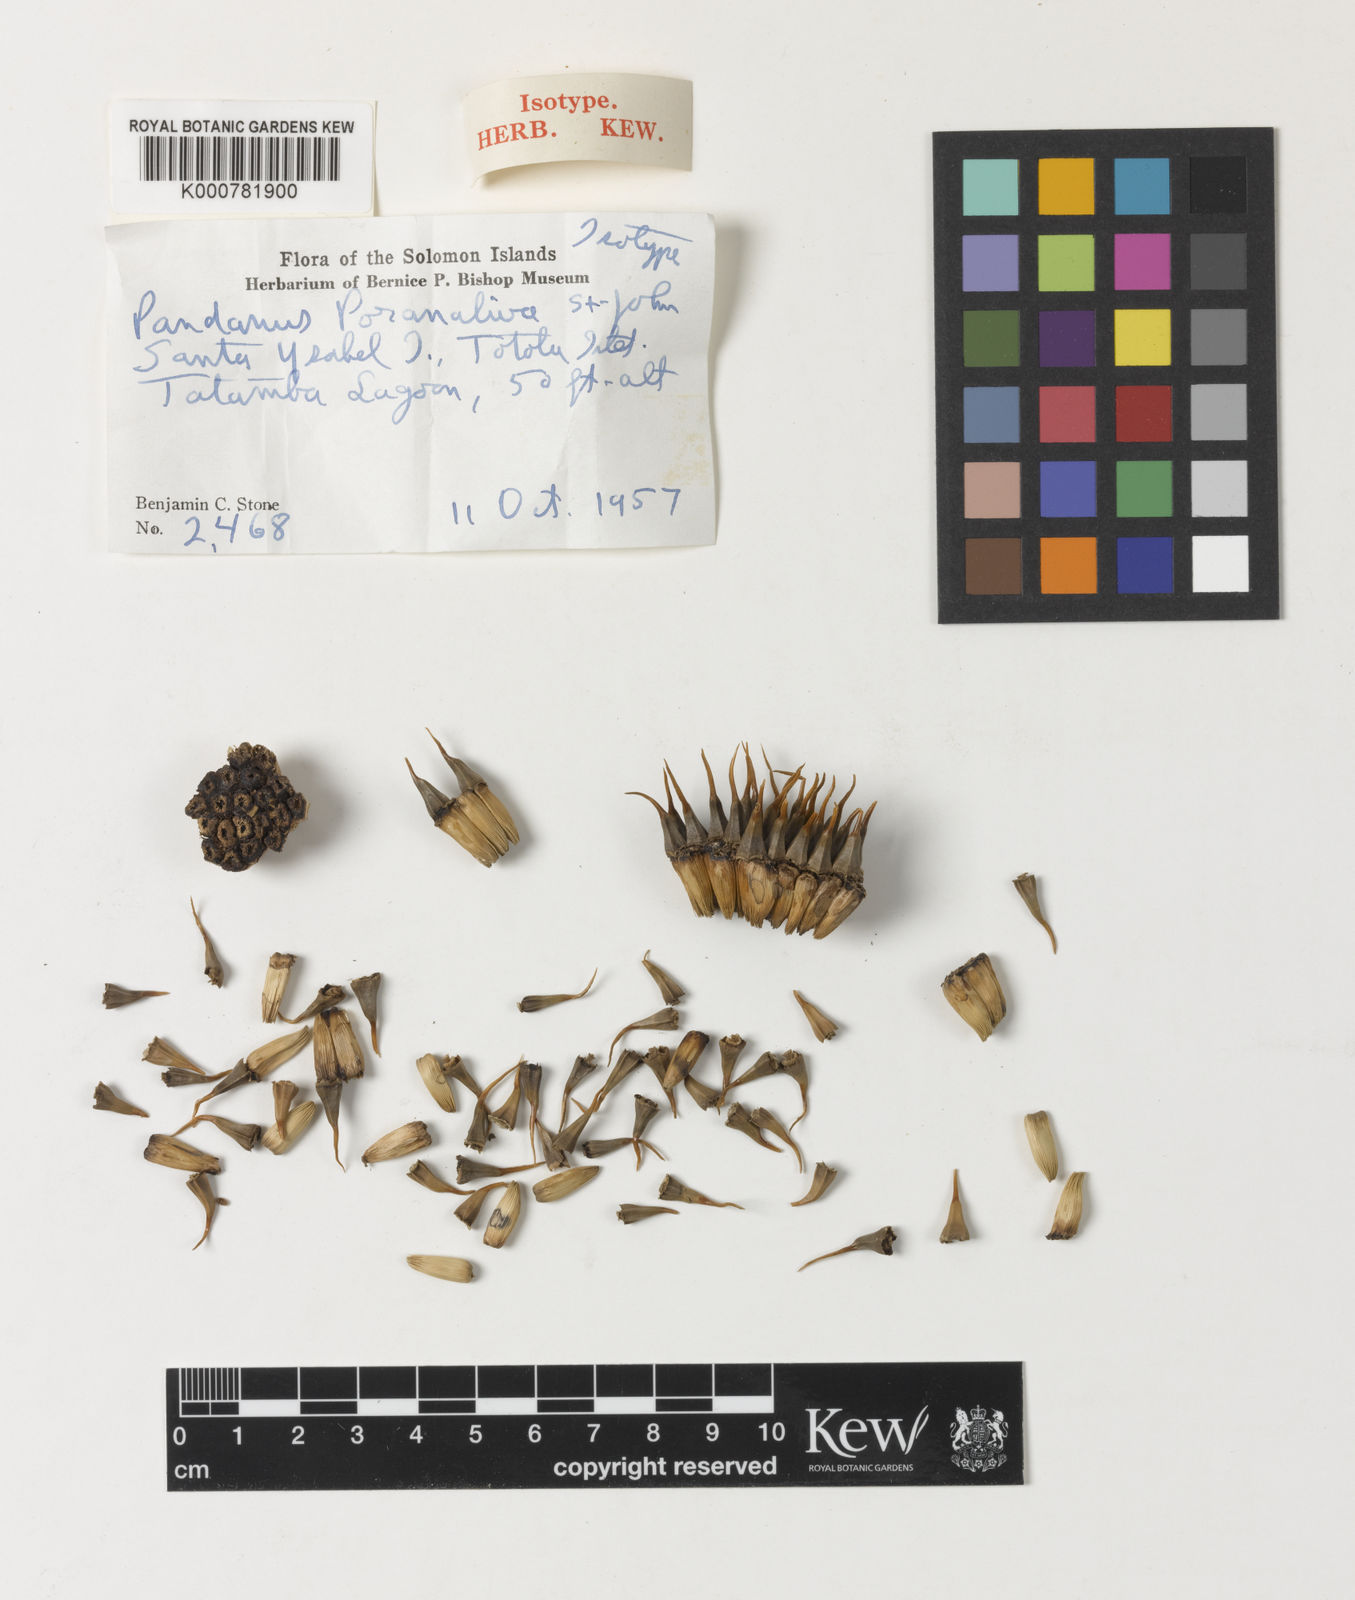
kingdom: Plantae
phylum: Tracheophyta
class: Liliopsida
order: Pandanales
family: Pandanaceae
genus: Pandanus
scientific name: Pandanus
